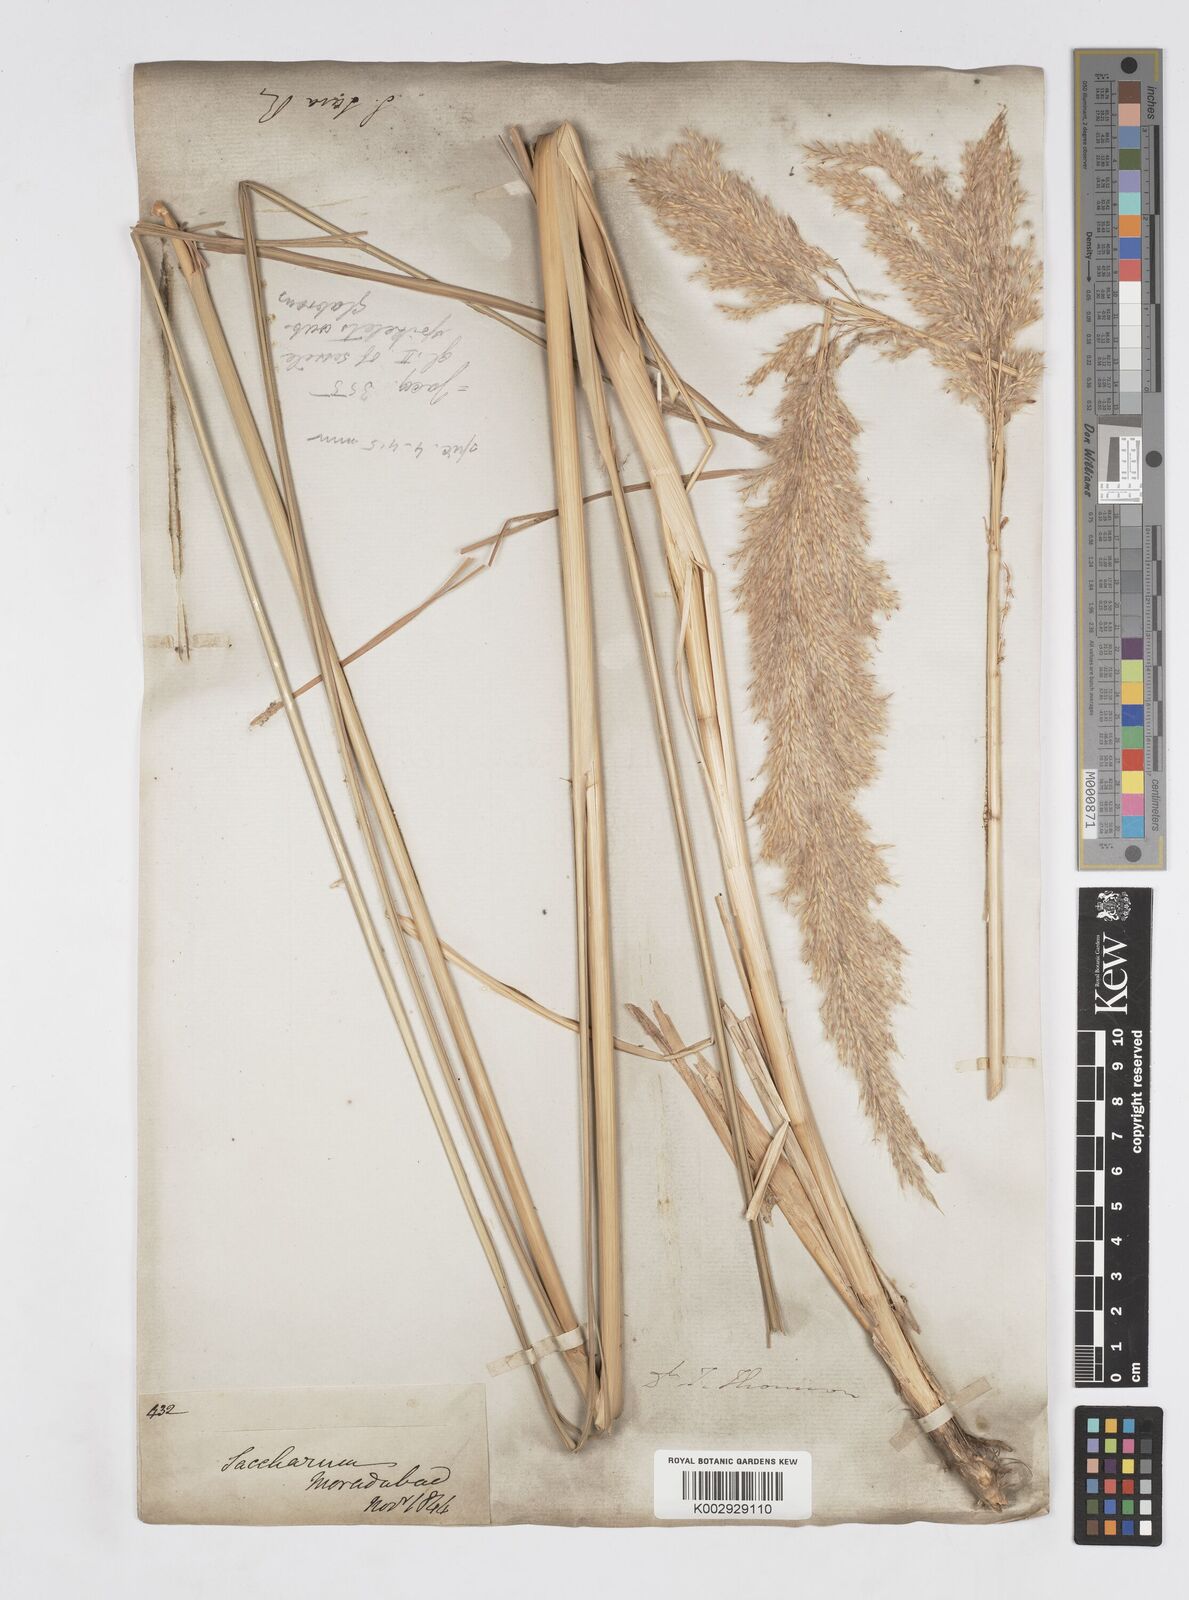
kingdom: Plantae
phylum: Tracheophyta
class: Liliopsida
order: Poales
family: Poaceae
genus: Saccharum
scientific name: Saccharum
